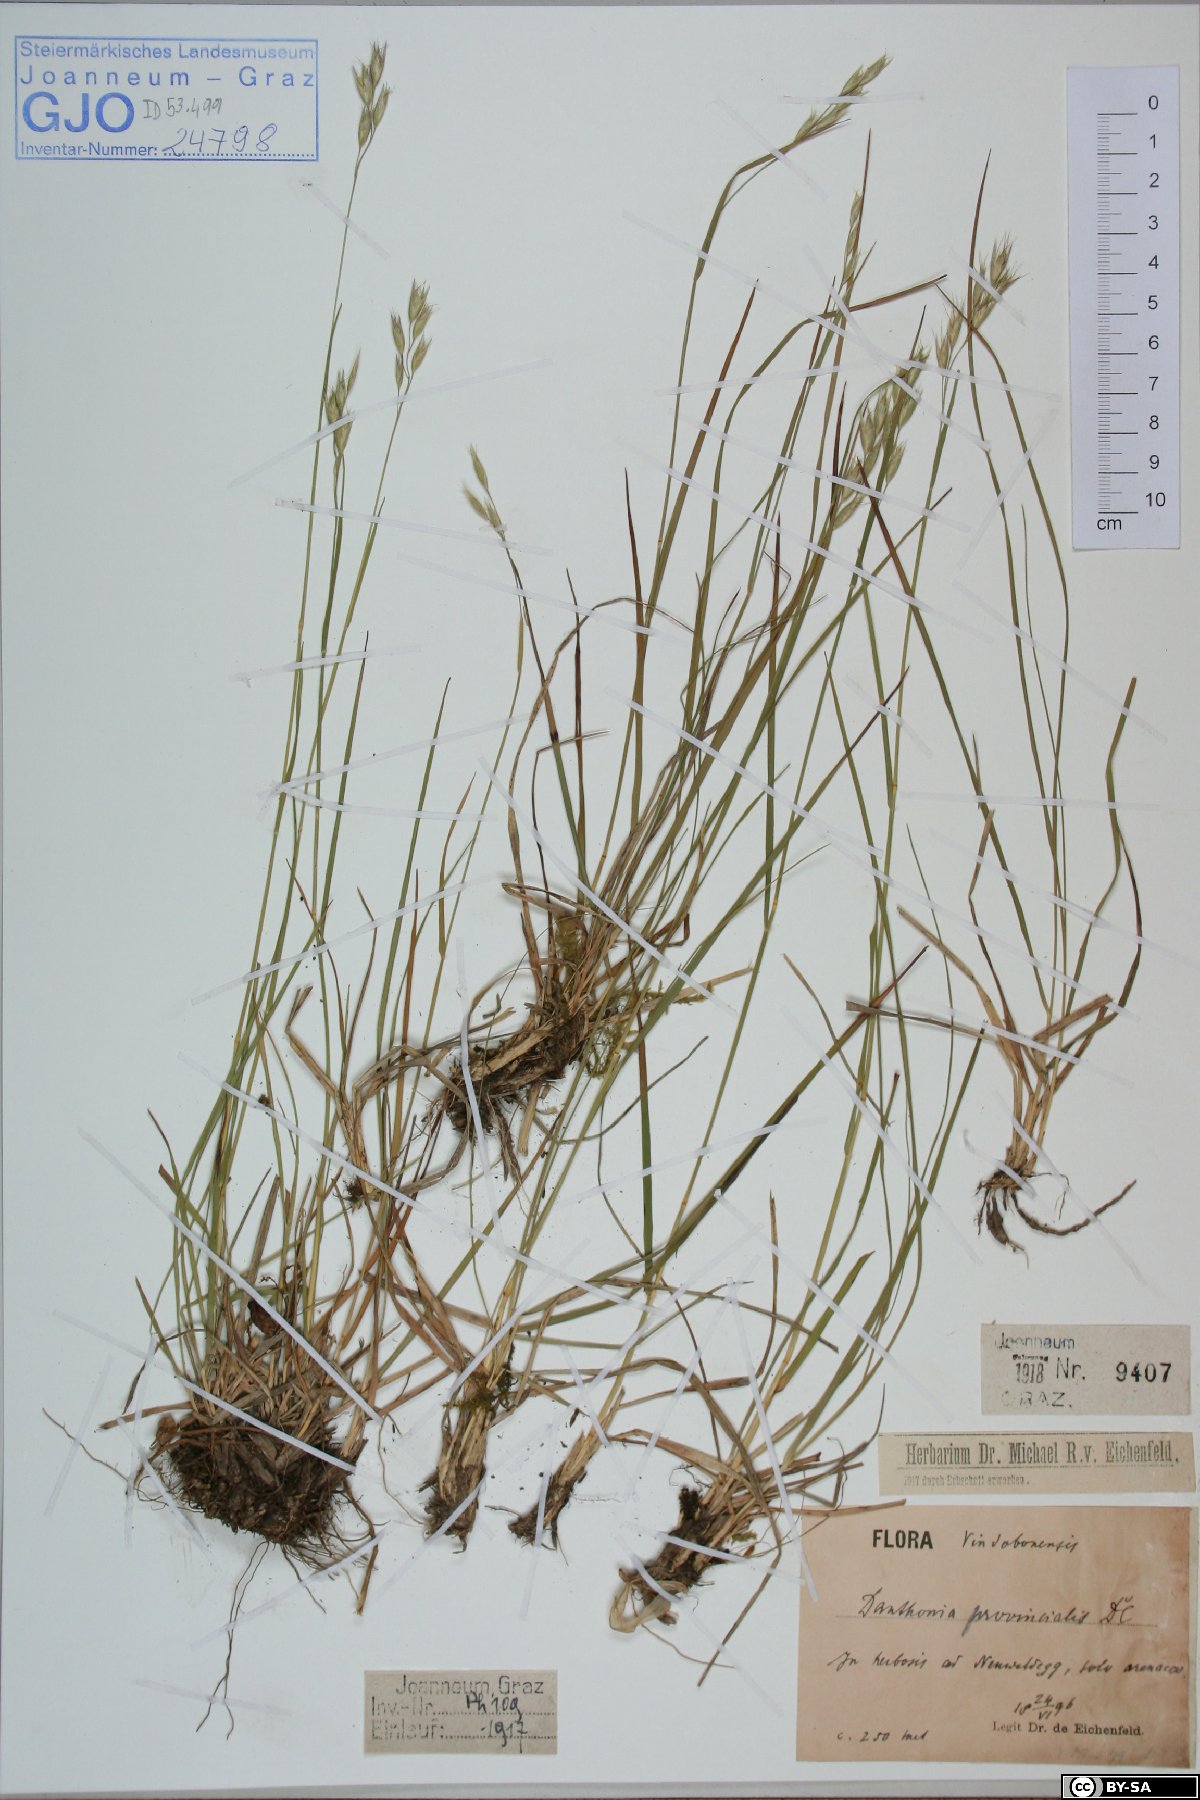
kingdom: Plantae
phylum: Tracheophyta
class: Liliopsida
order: Poales
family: Poaceae
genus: Danthonia
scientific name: Danthonia alpina
